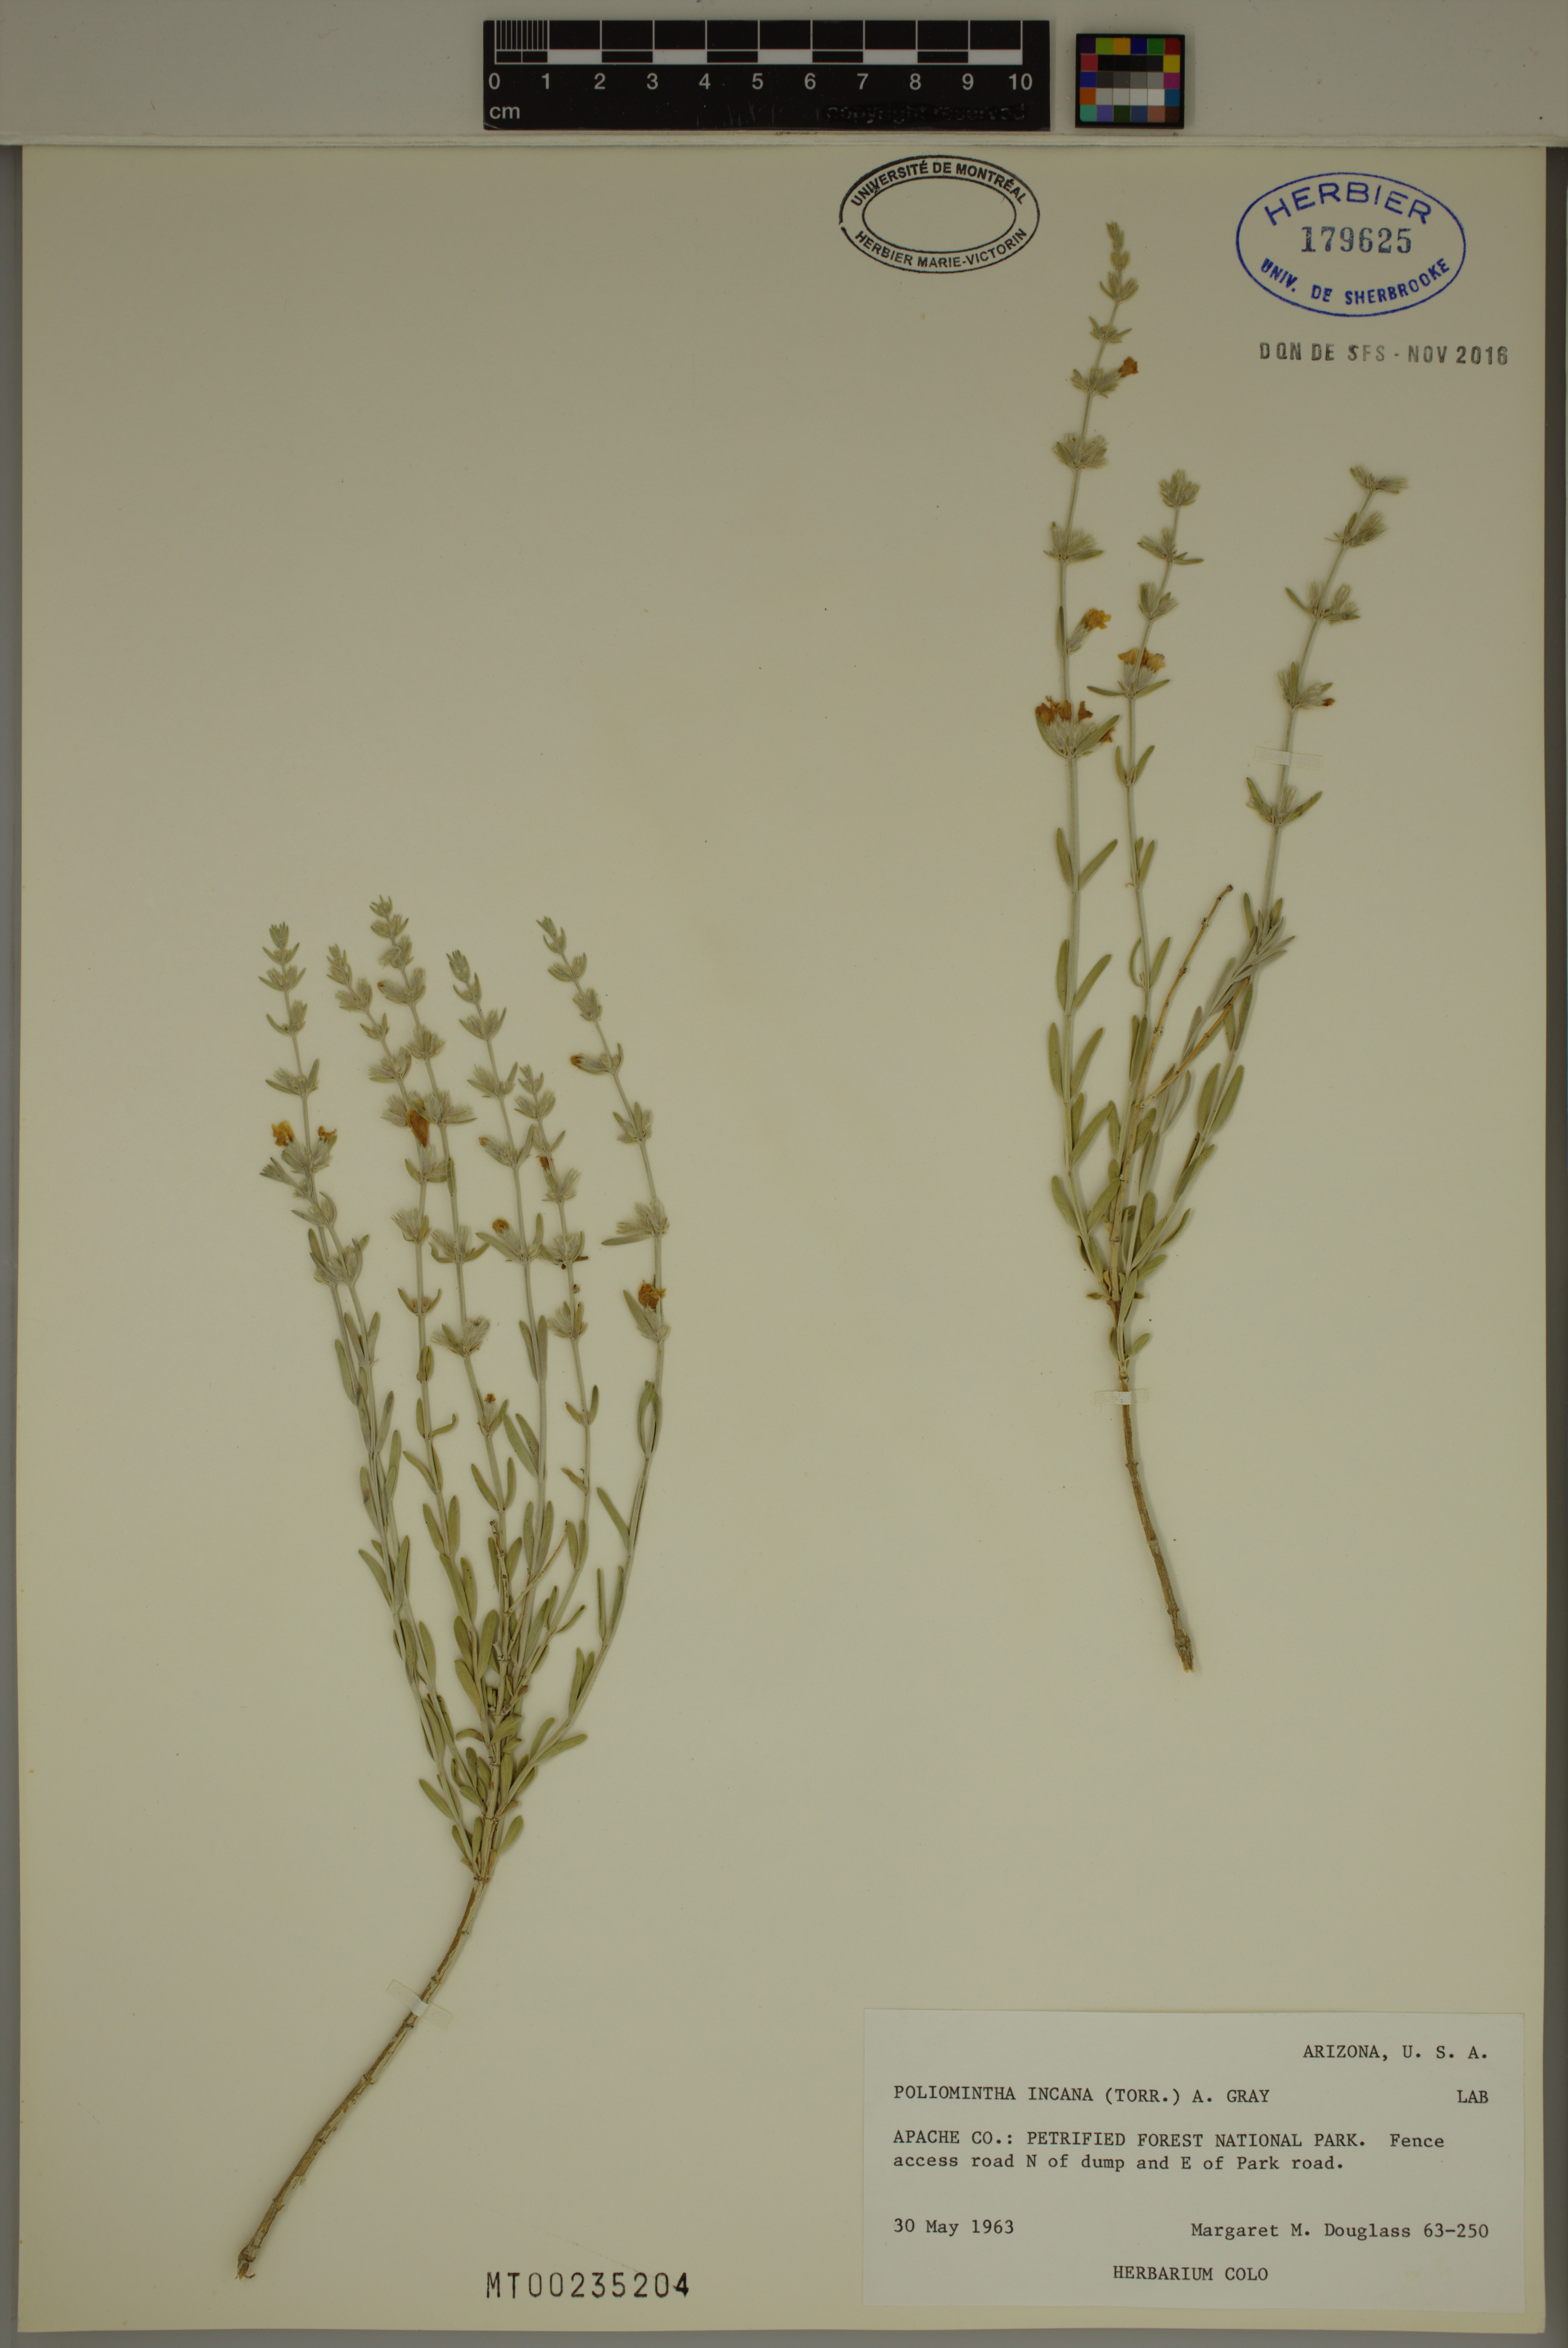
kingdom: Plantae
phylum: Tracheophyta
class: Magnoliopsida
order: Lamiales
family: Lamiaceae
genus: Poliomintha
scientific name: Poliomintha incana
